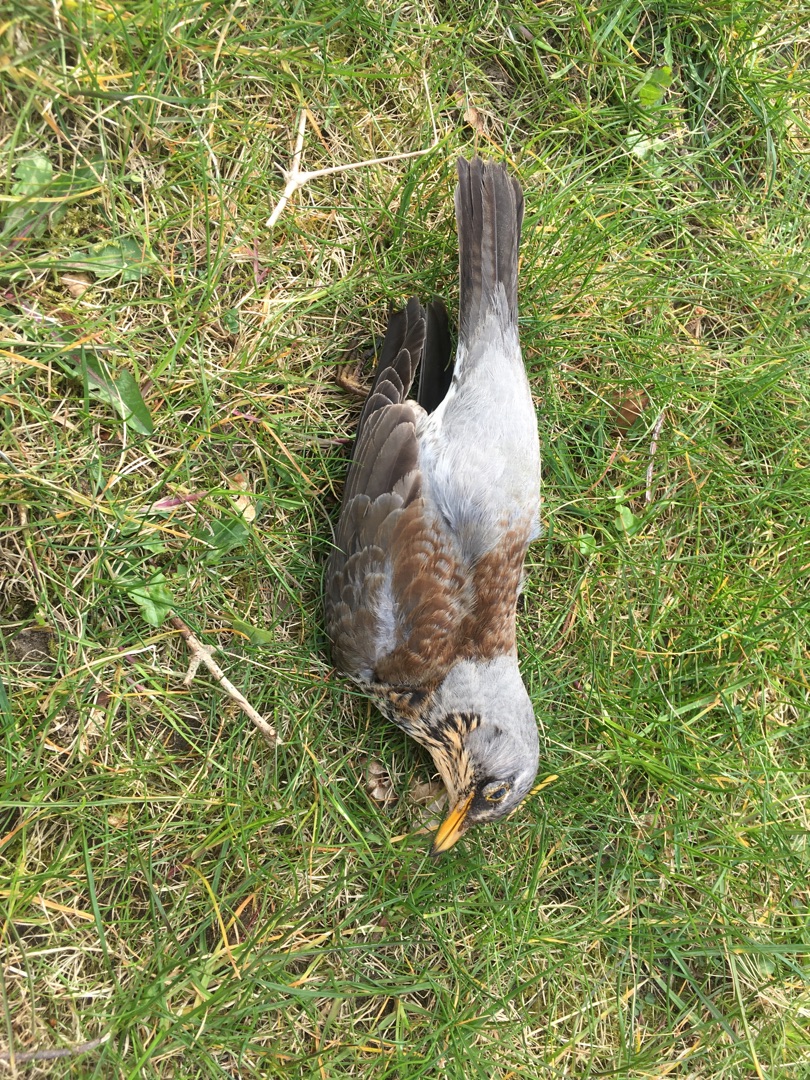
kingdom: Animalia
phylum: Chordata
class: Aves
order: Passeriformes
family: Turdidae
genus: Turdus
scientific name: Turdus pilaris
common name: Sjagger
